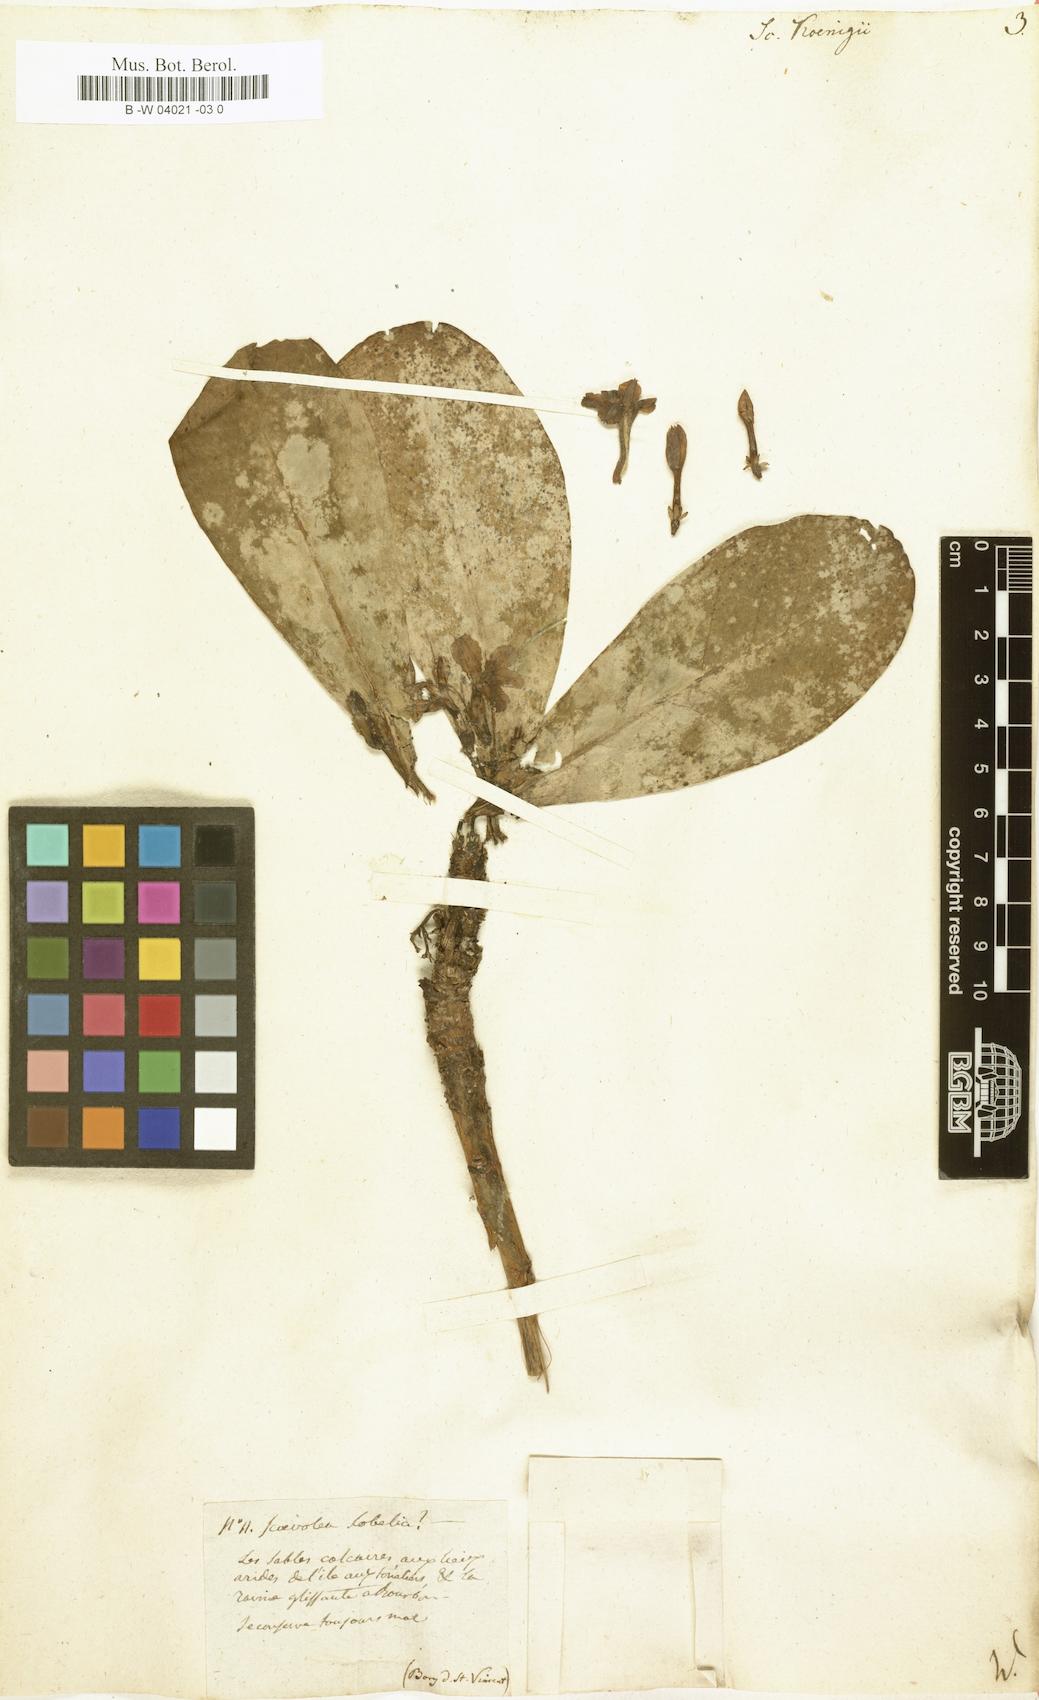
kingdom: Plantae
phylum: Tracheophyta
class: Magnoliopsida
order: Asterales
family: Goodeniaceae
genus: Scaevola
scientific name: Scaevola taccada
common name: Sea lettucetree
